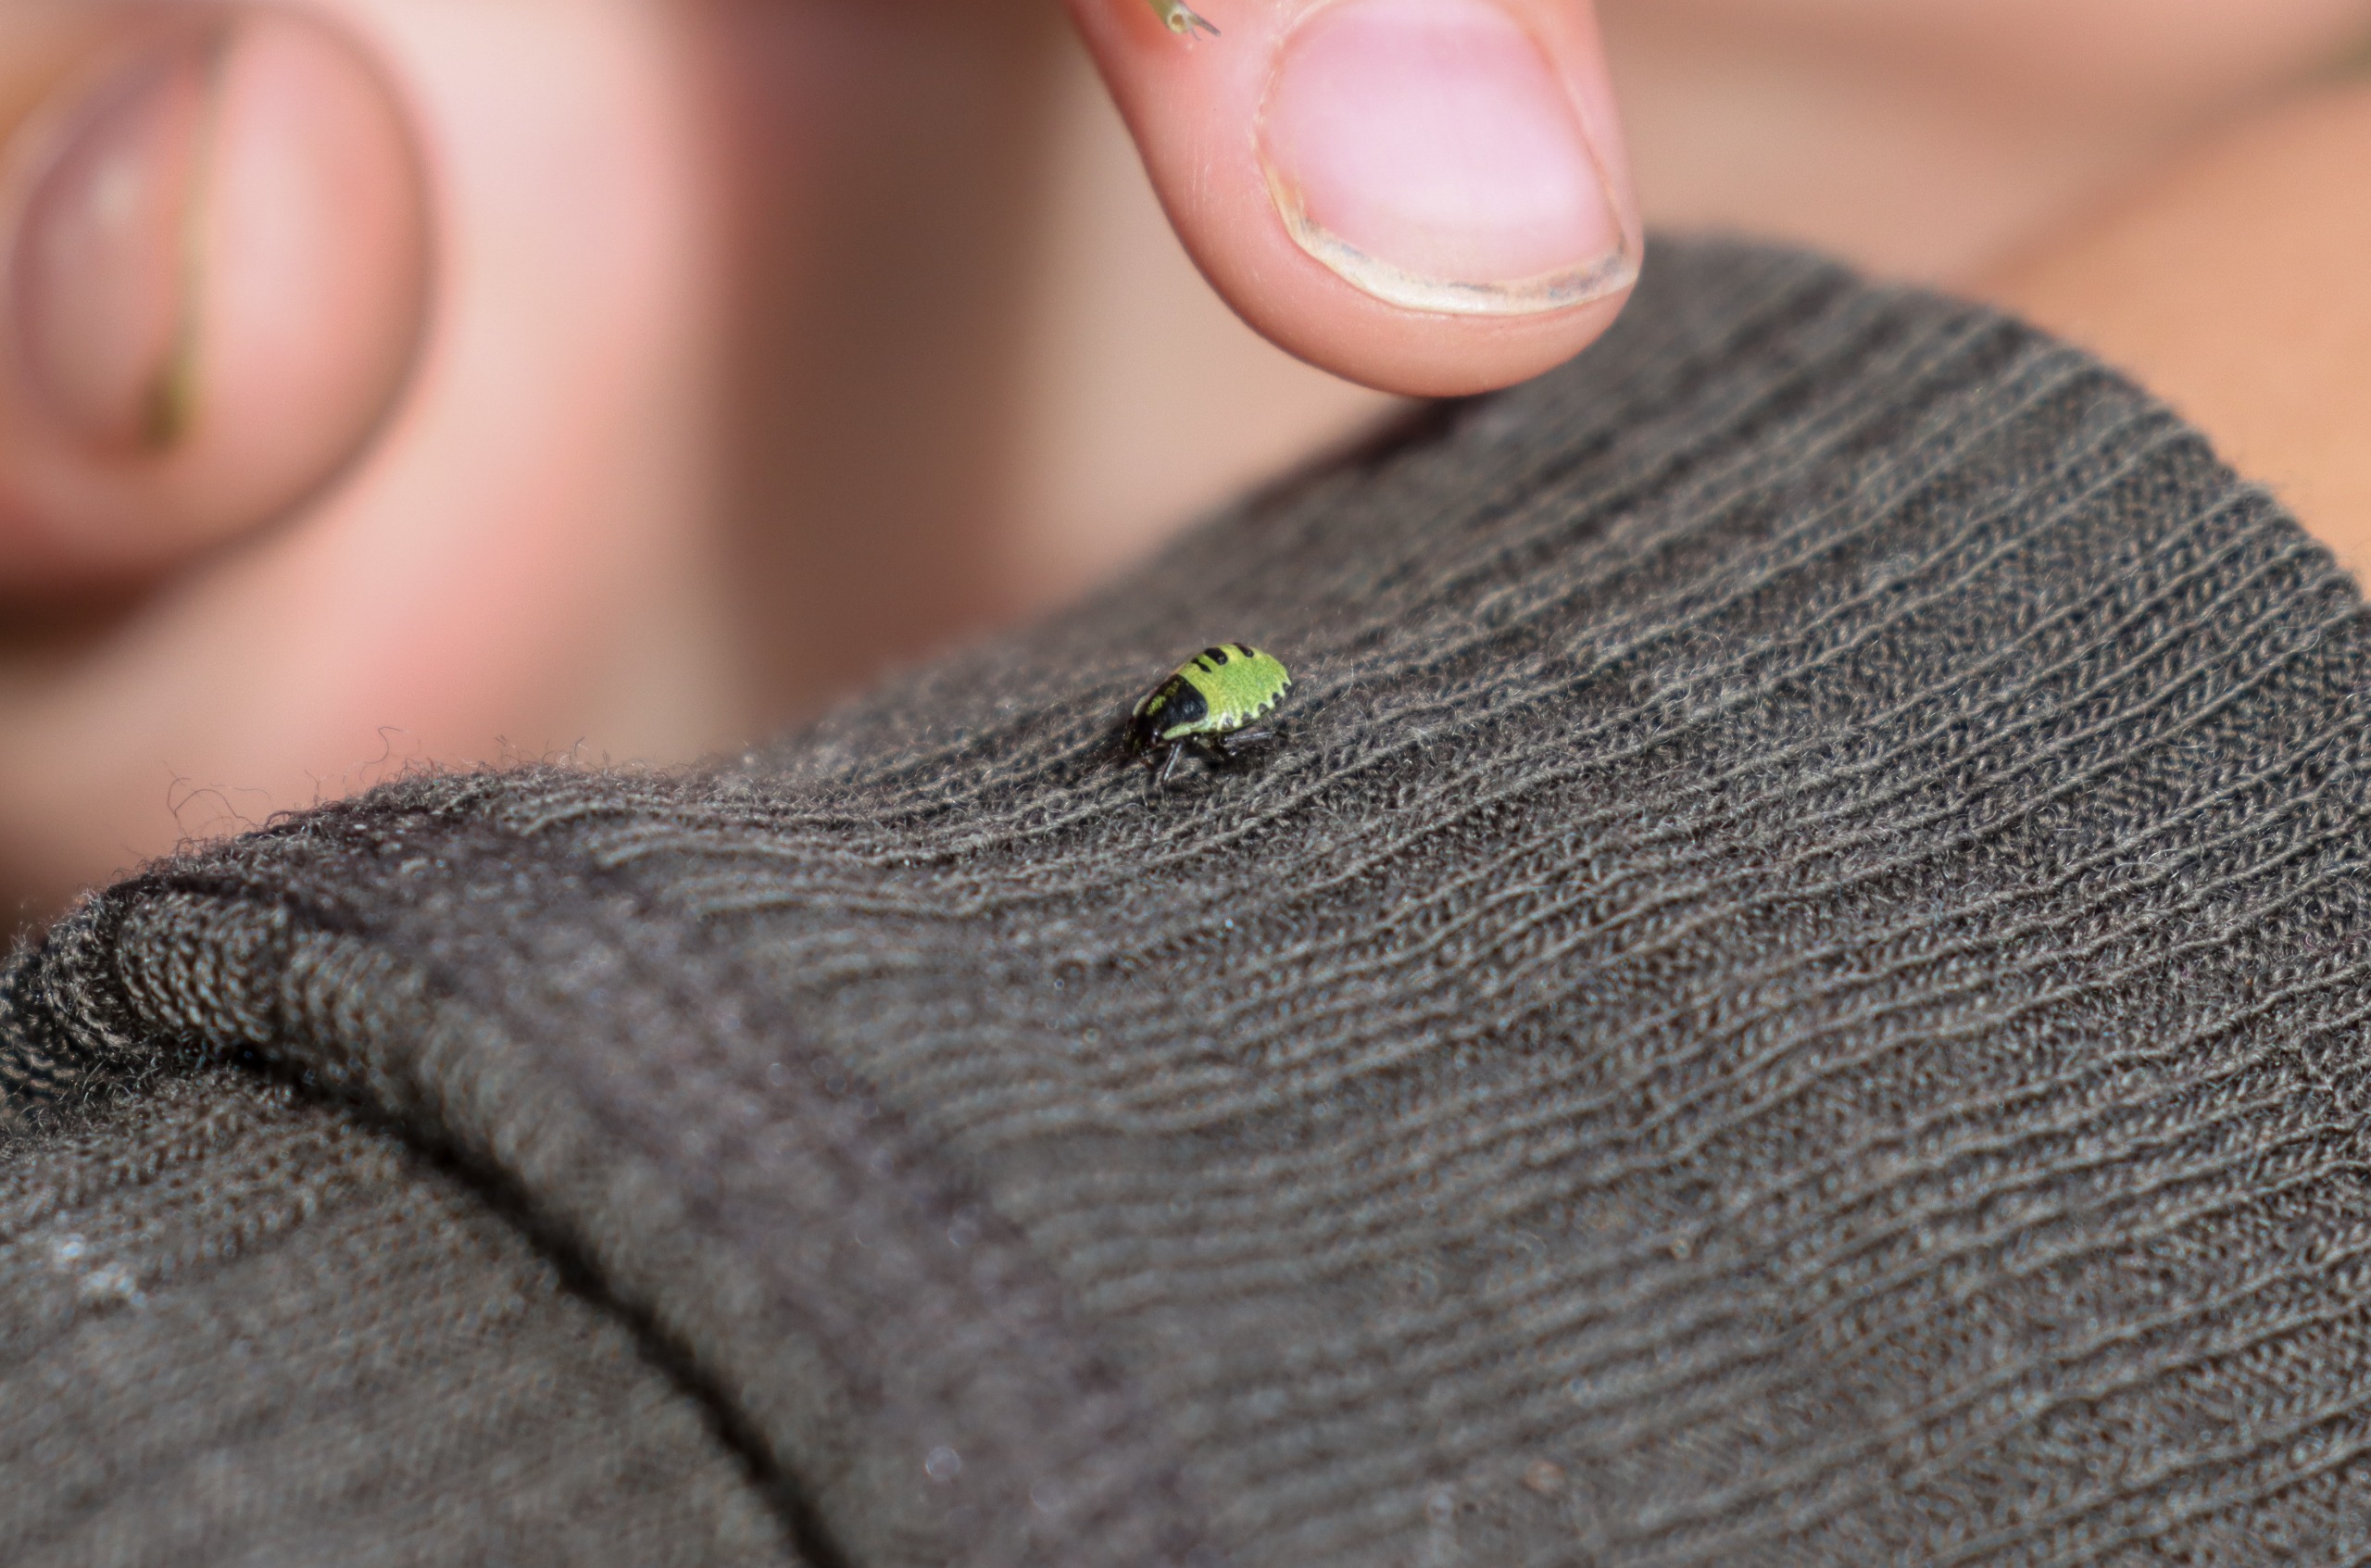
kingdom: Animalia
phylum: Arthropoda
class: Insecta
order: Hemiptera
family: Pentatomidae
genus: Palomena
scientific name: Palomena prasina
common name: Grøn bredtæge
